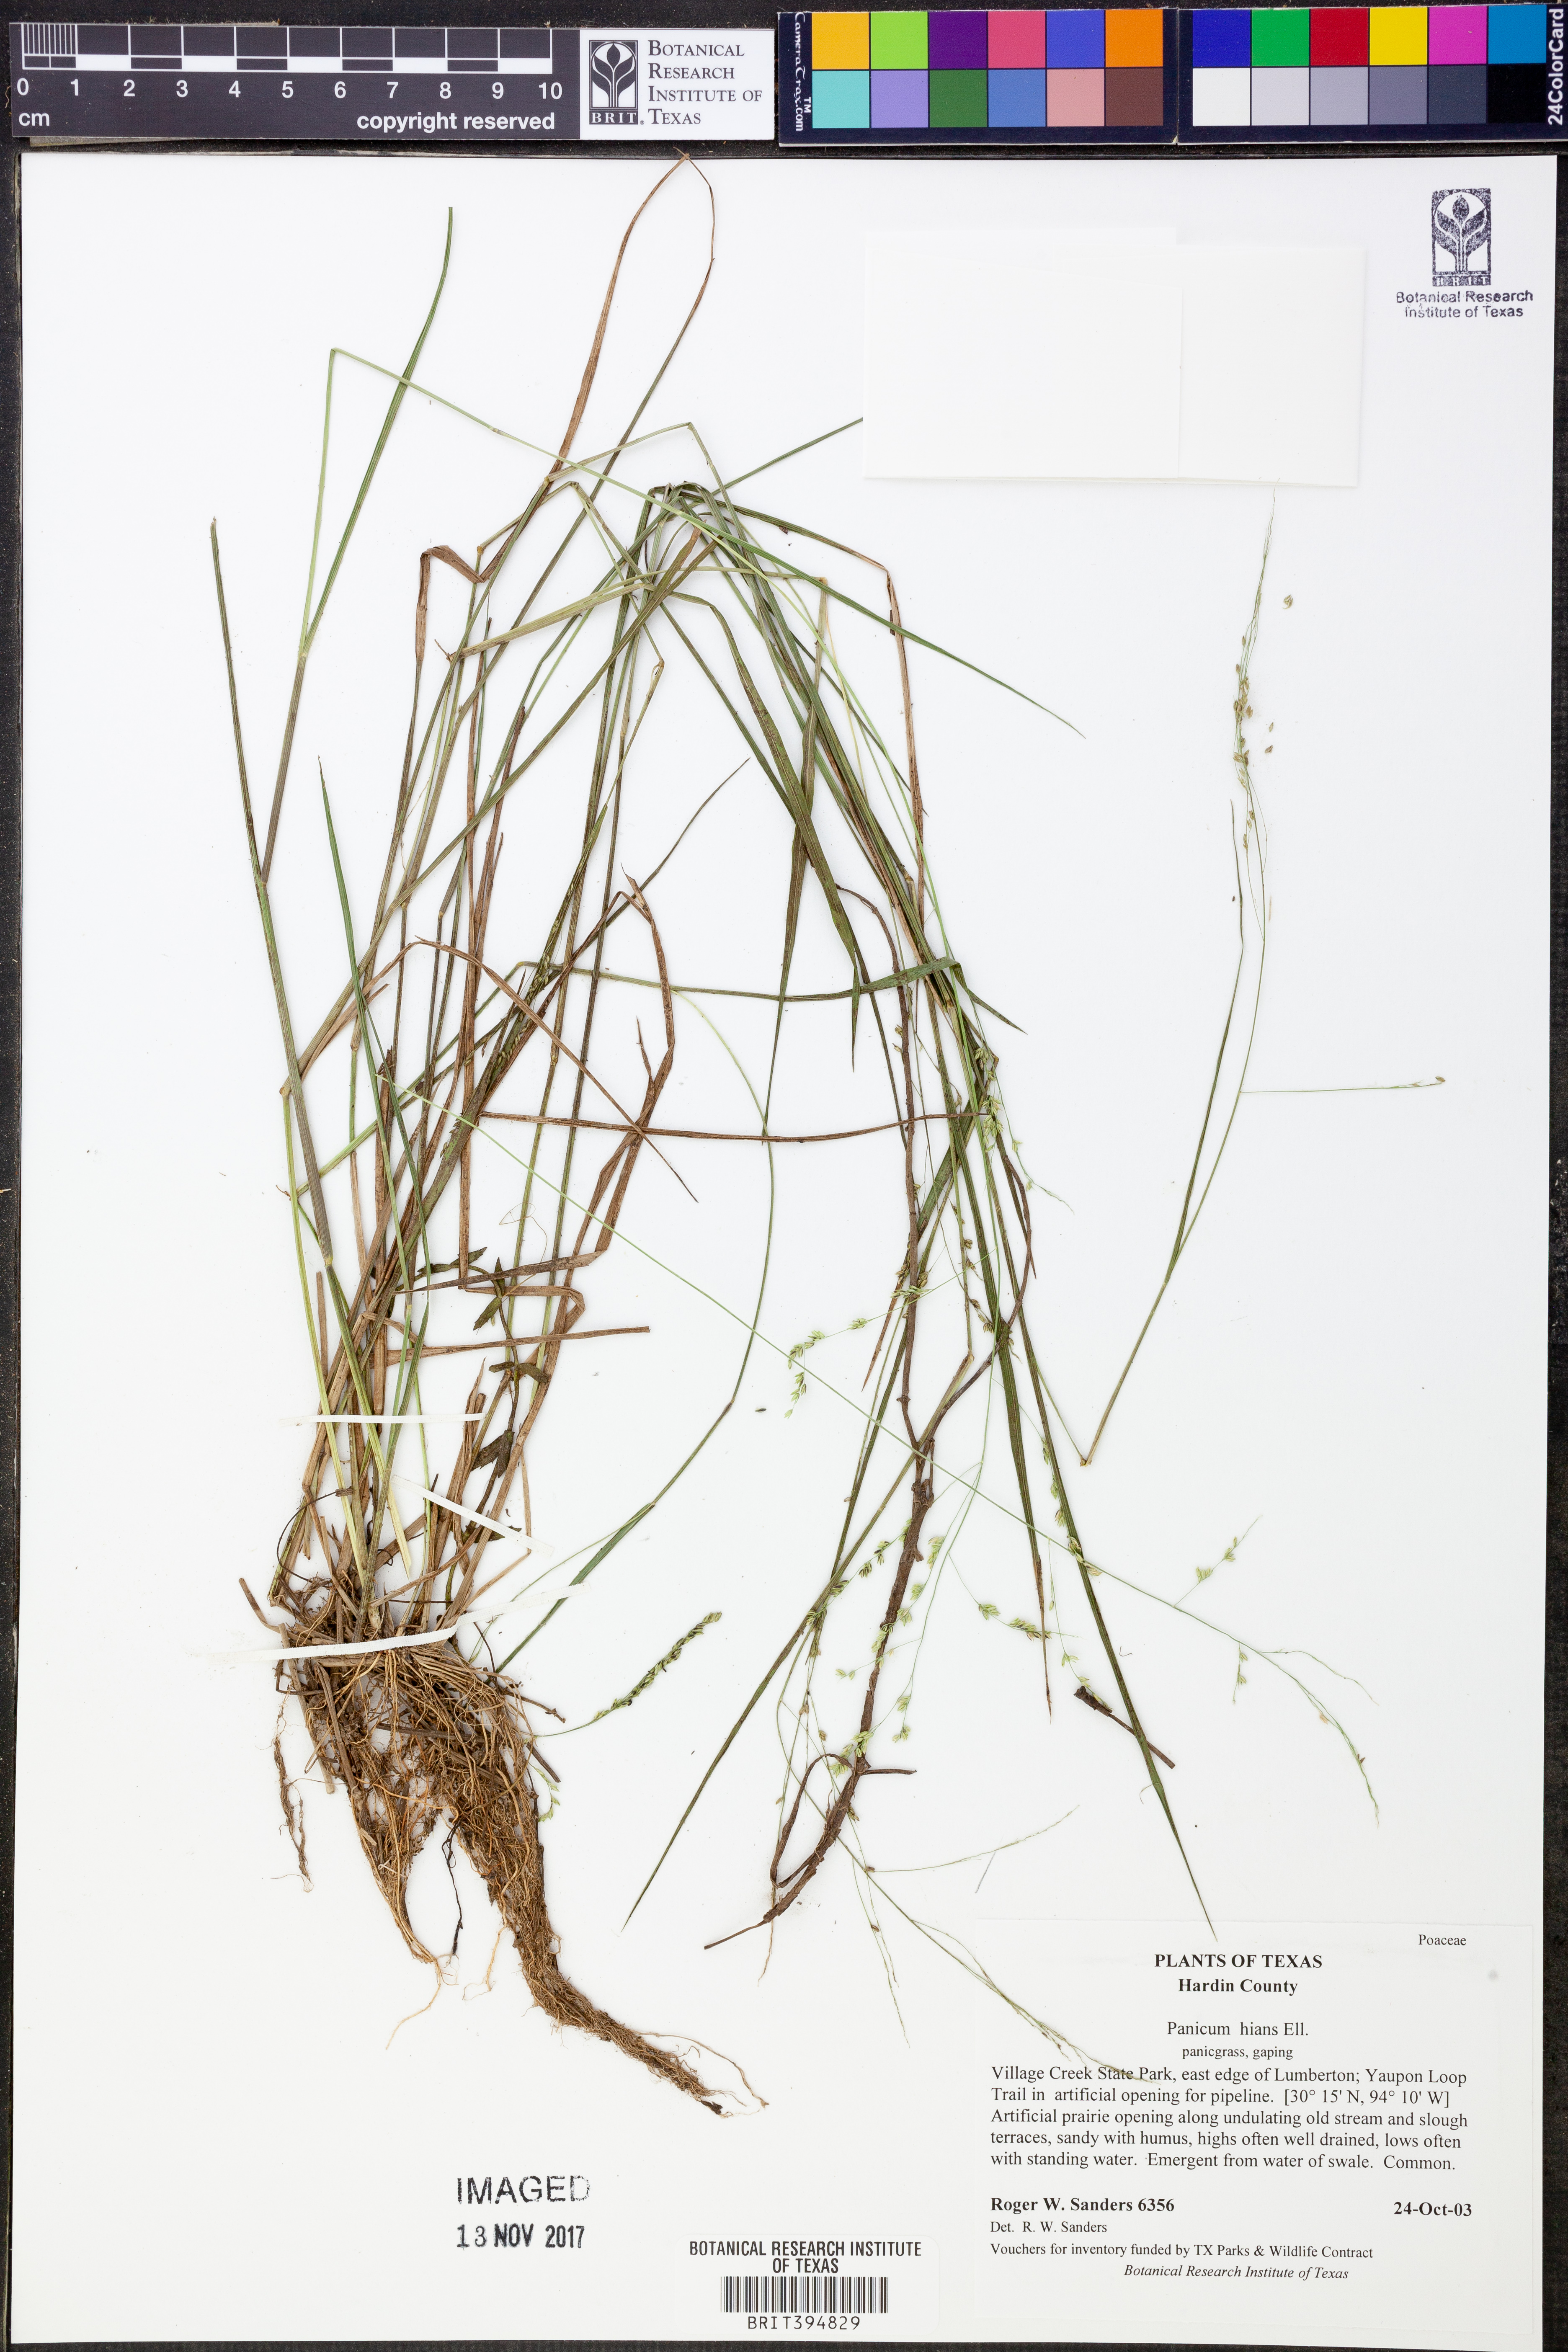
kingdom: Plantae
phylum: Tracheophyta
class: Liliopsida
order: Poales
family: Poaceae
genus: Coleataenia
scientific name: Coleataenia stenodes
